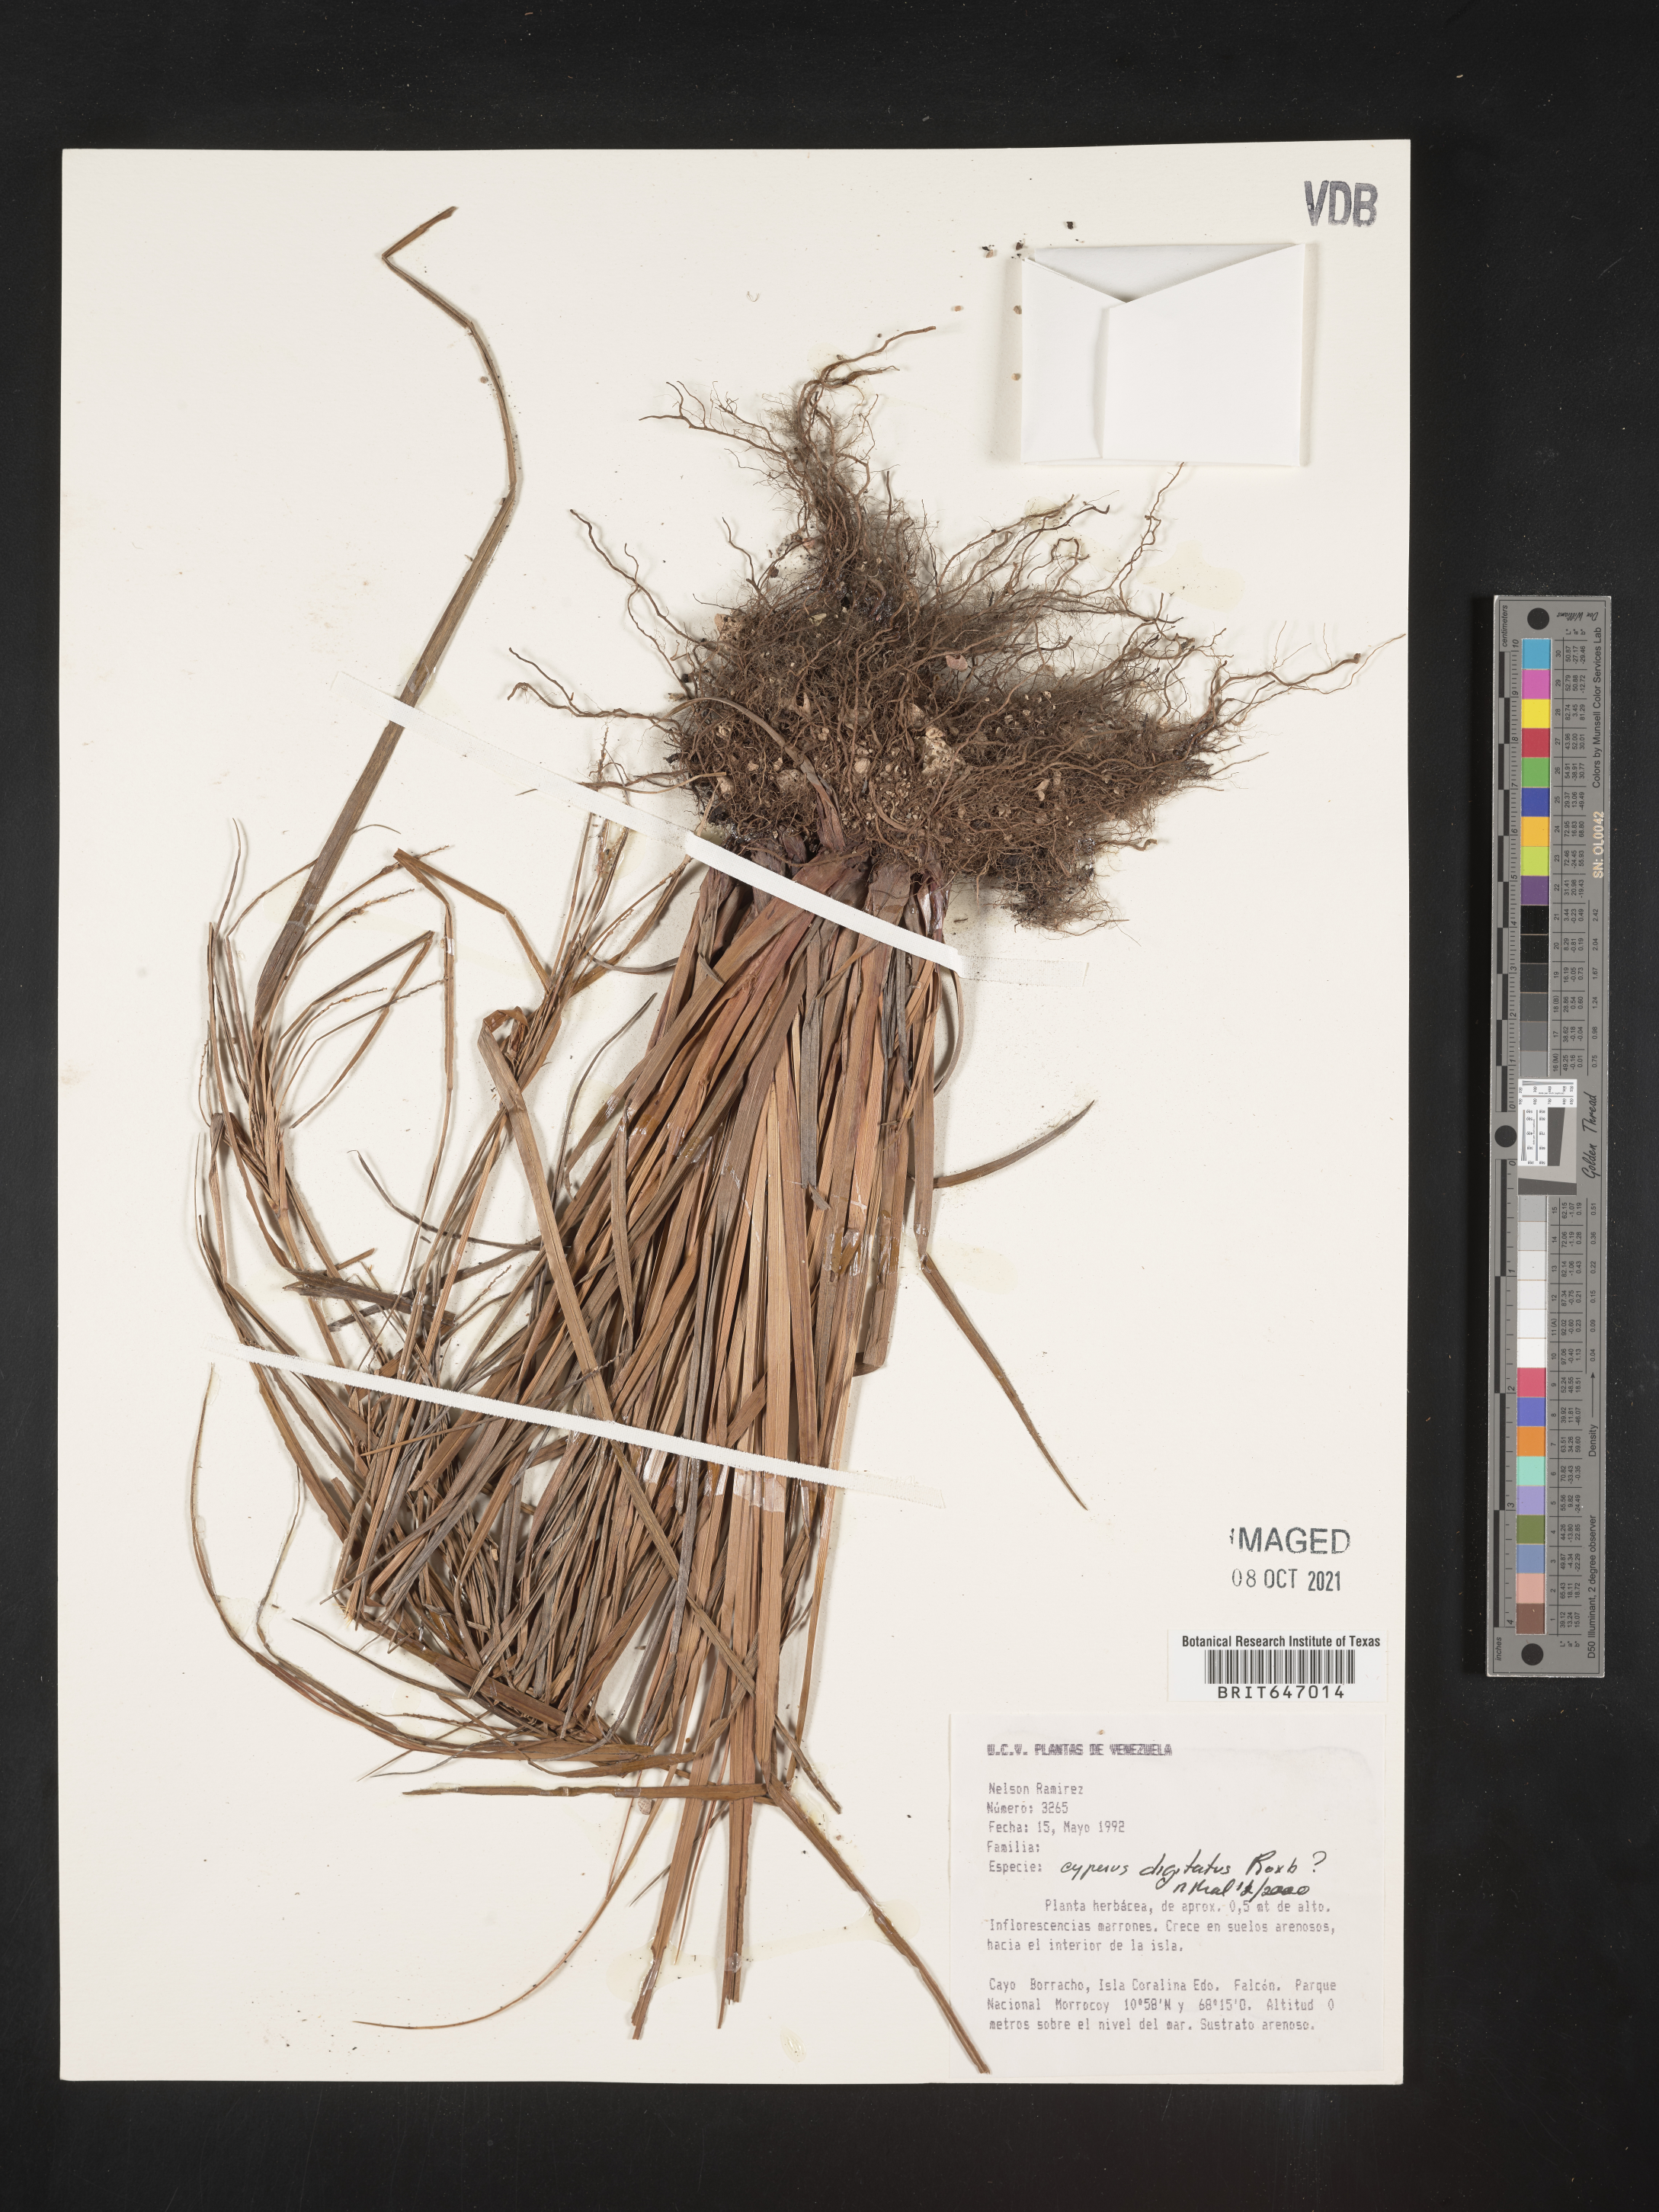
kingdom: Plantae
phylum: Tracheophyta
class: Liliopsida
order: Poales
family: Cyperaceae
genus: Cyperus
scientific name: Cyperus digitatus
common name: Finger flatsedge
